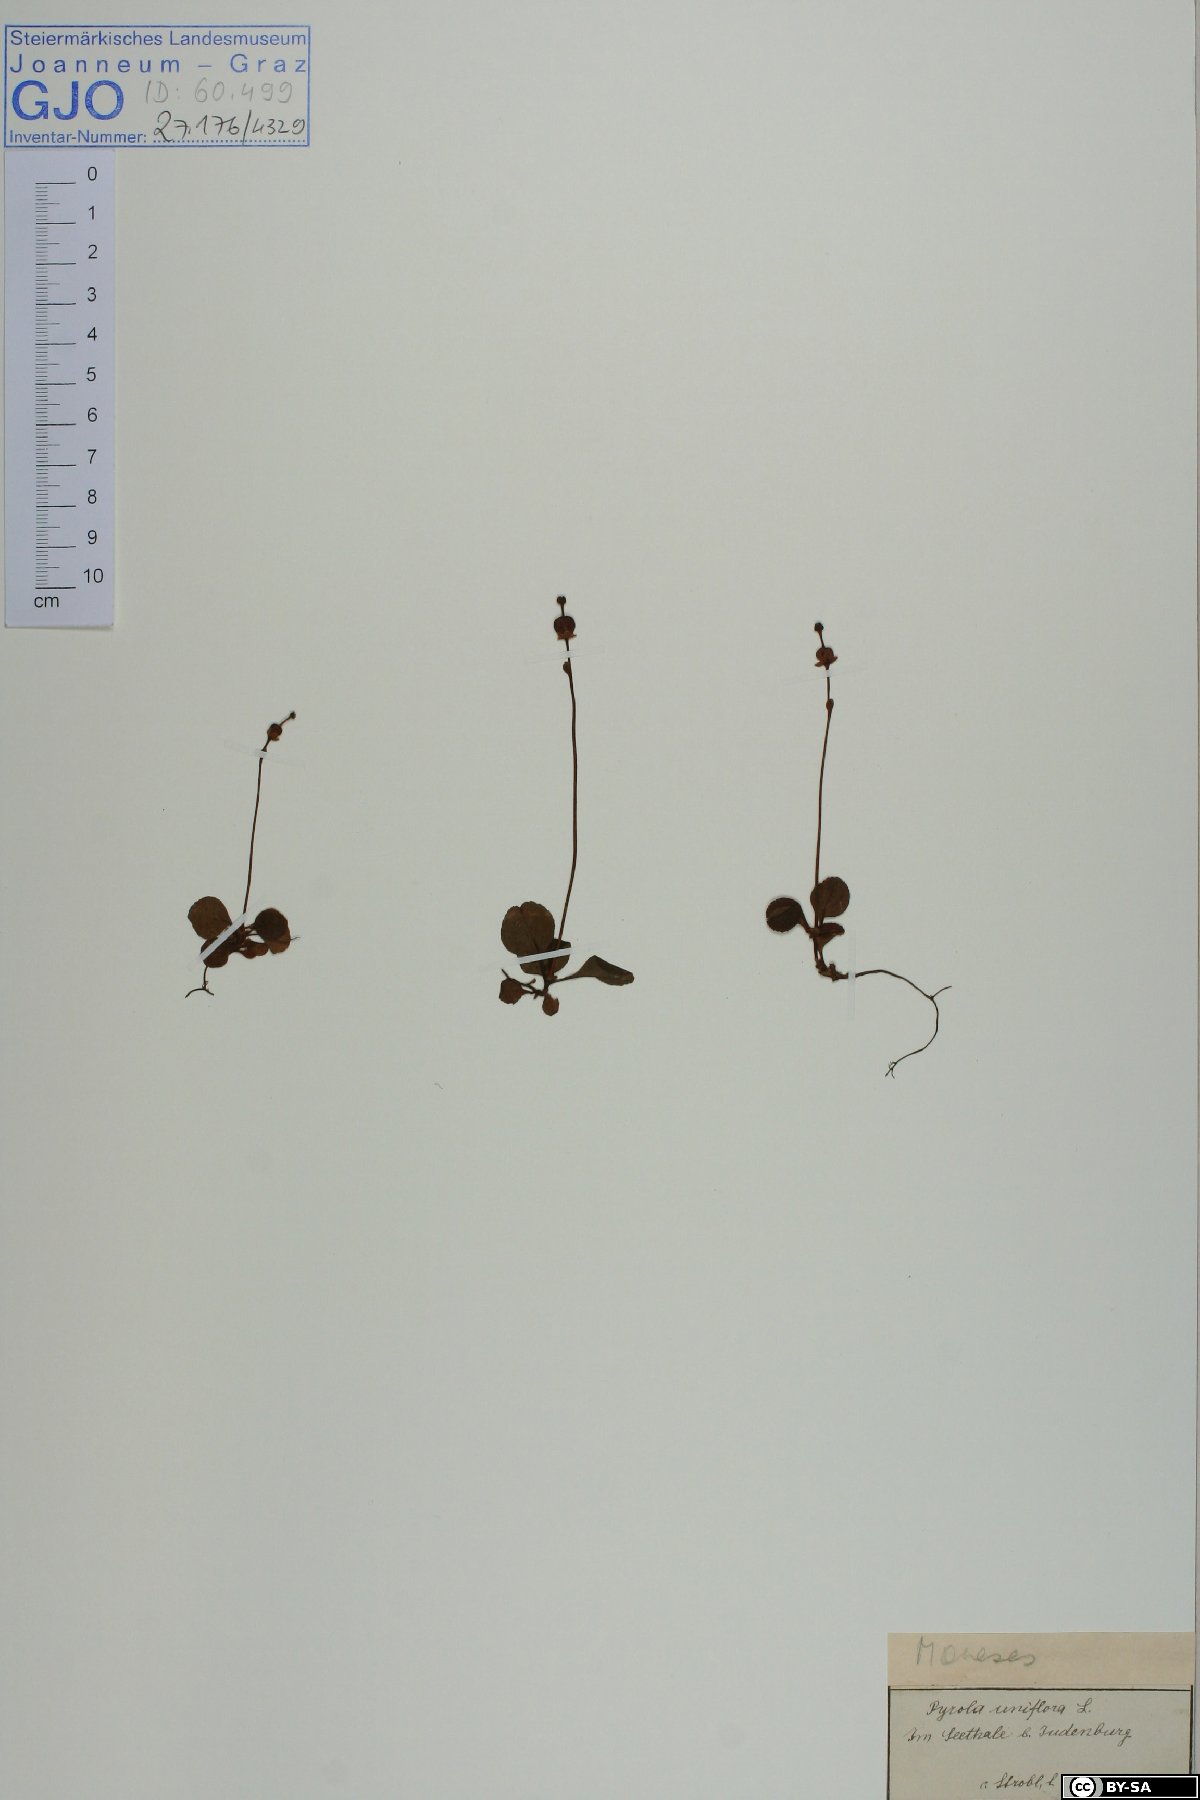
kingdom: Plantae
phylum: Tracheophyta
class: Magnoliopsida
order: Ericales
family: Ericaceae
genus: Moneses
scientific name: Moneses uniflora
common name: One-flowered wintergreen
